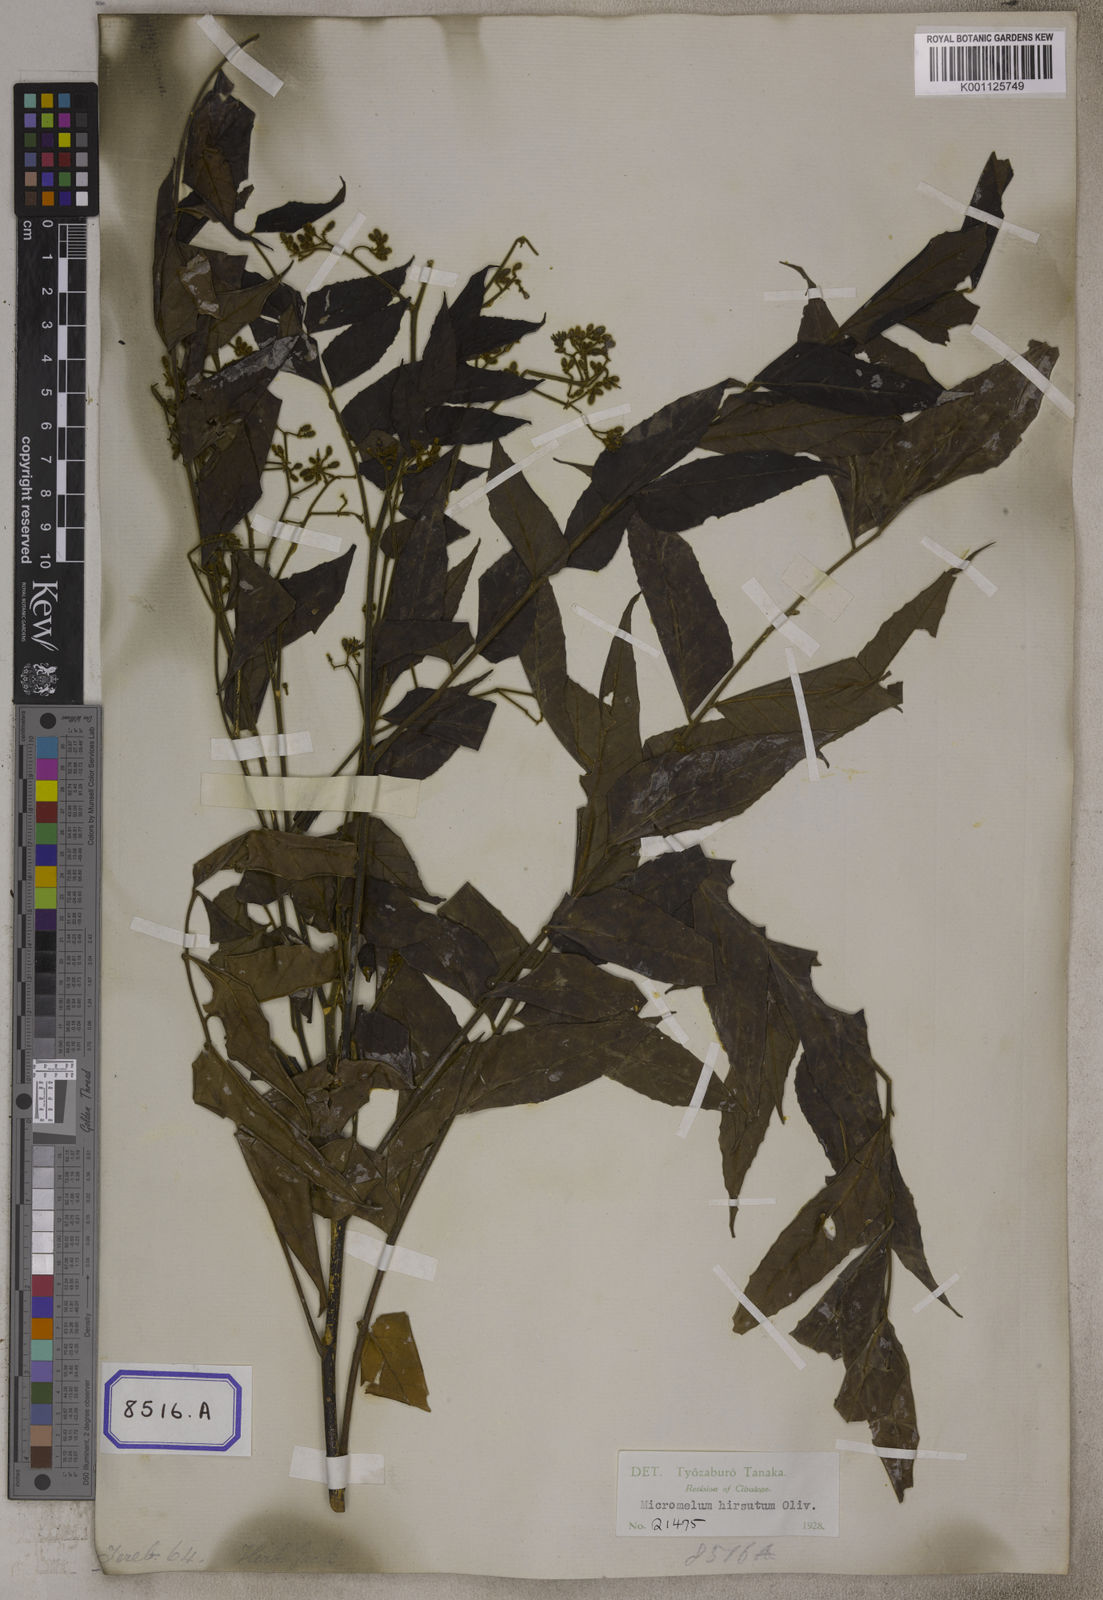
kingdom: Plantae
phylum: Tracheophyta
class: Magnoliopsida
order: Sapindales
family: Rutaceae
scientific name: Rutaceae
